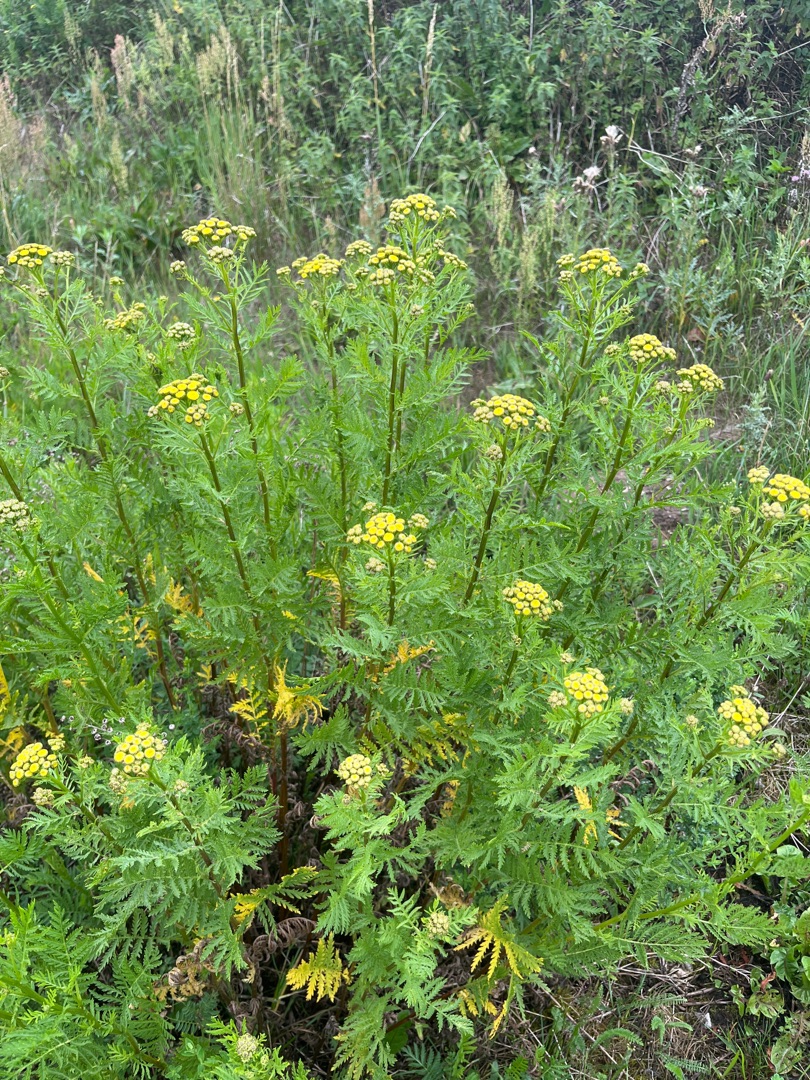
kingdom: Plantae
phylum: Tracheophyta
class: Magnoliopsida
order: Asterales
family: Asteraceae
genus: Tanacetum
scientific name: Tanacetum vulgare
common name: Rejnfan
